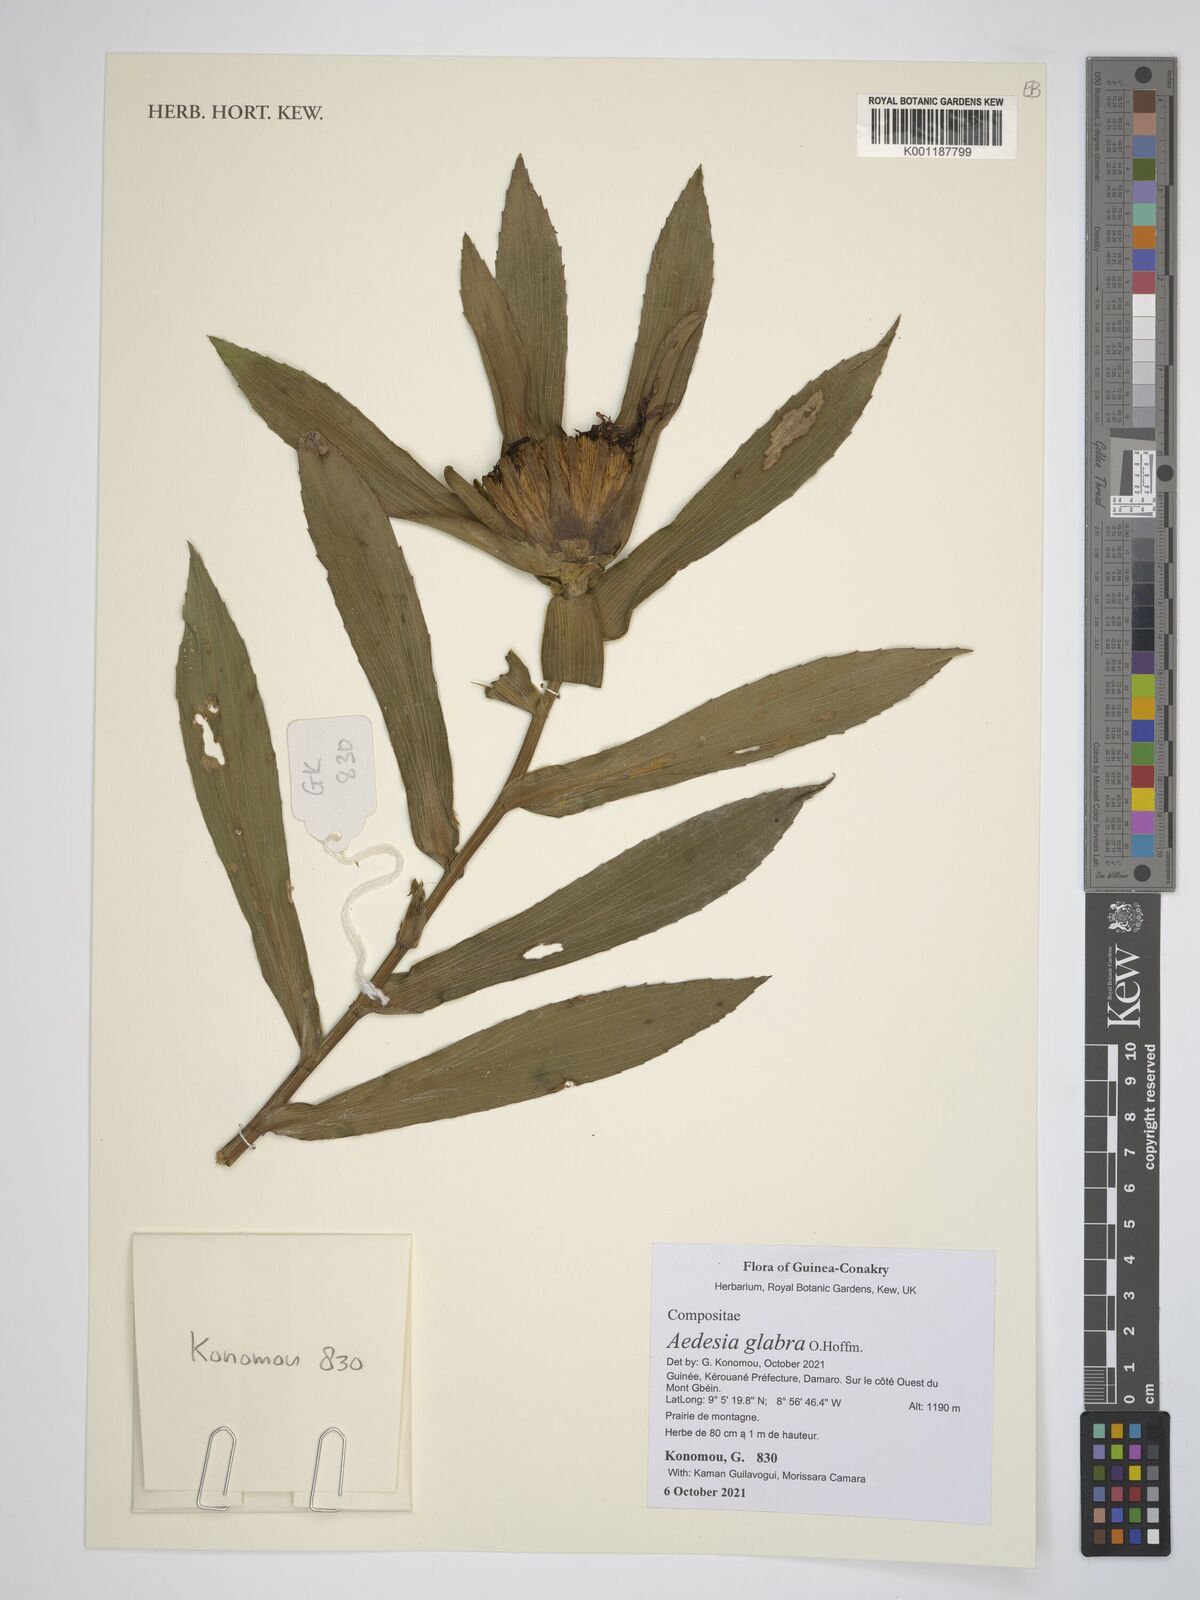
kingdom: Plantae
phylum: Tracheophyta
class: Magnoliopsida
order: Asterales
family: Asteraceae
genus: Aedesia
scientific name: Aedesia glabra
